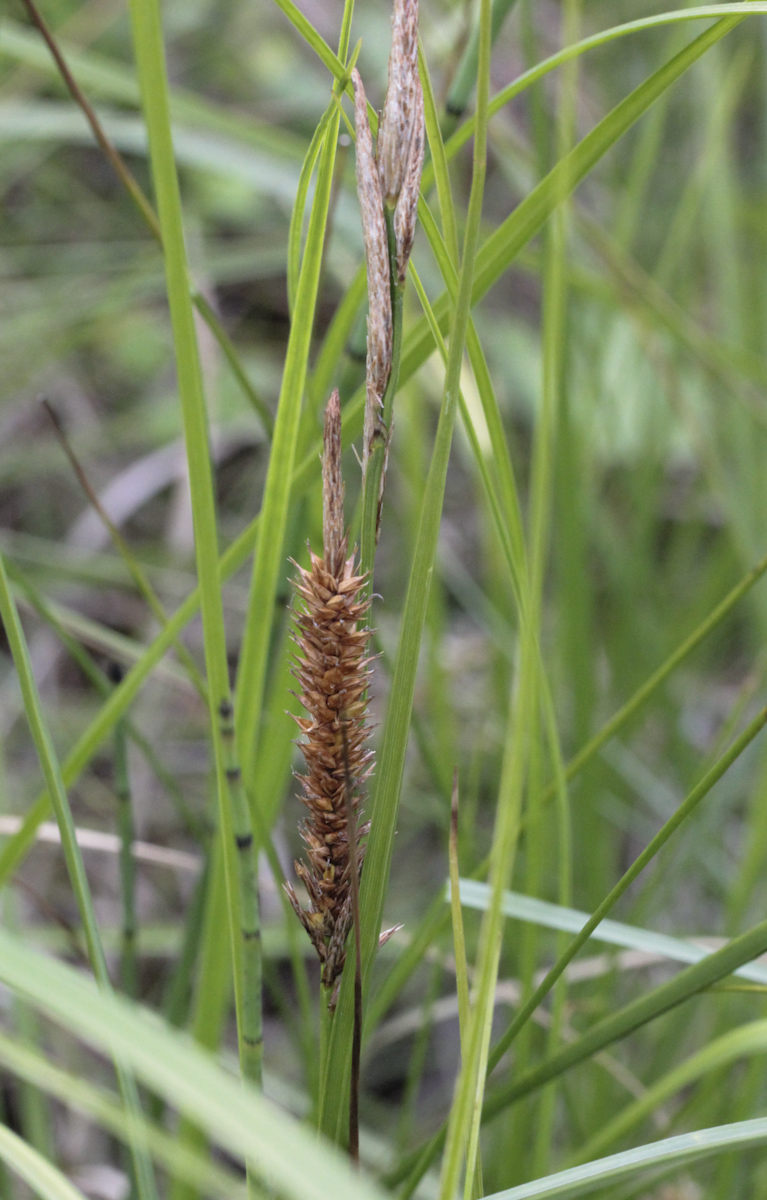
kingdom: Plantae
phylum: Tracheophyta
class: Liliopsida
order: Poales
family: Cyperaceae
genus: Carex
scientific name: Carex
